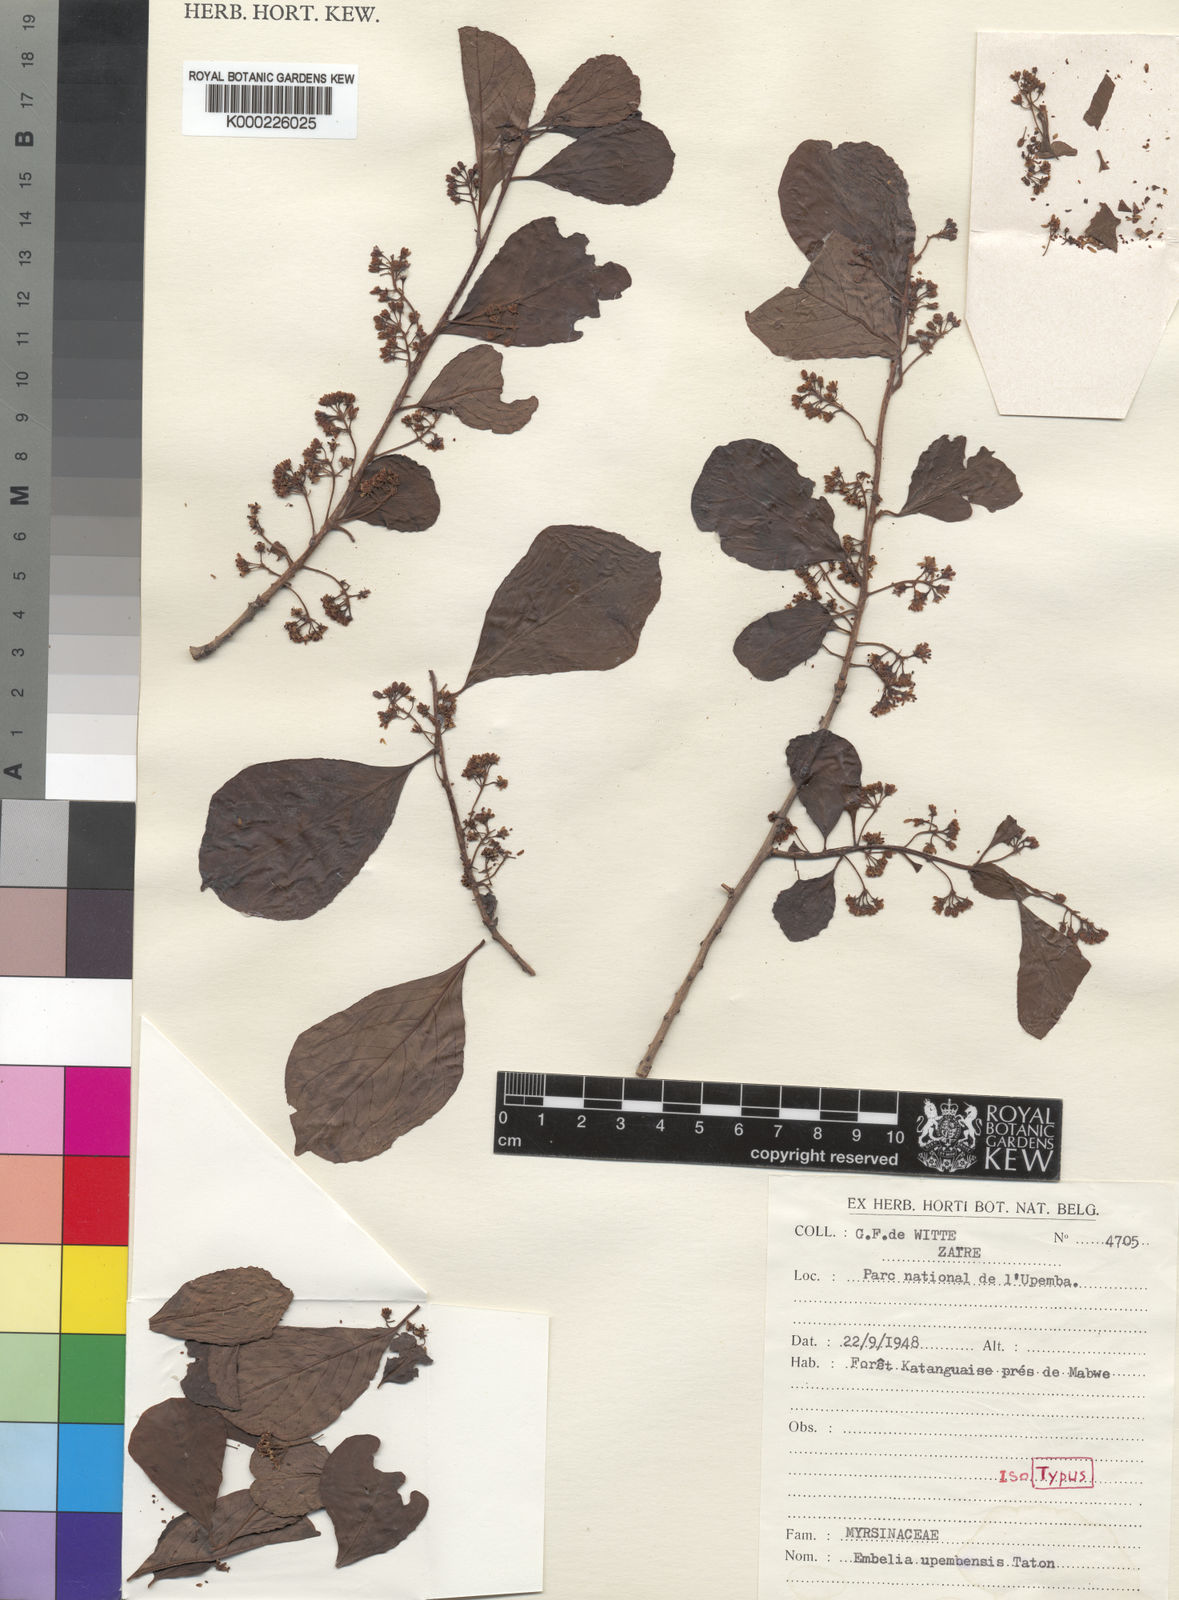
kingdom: Plantae
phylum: Tracheophyta
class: Magnoliopsida
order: Ericales
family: Primulaceae
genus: Embelia
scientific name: Embelia upembensis
